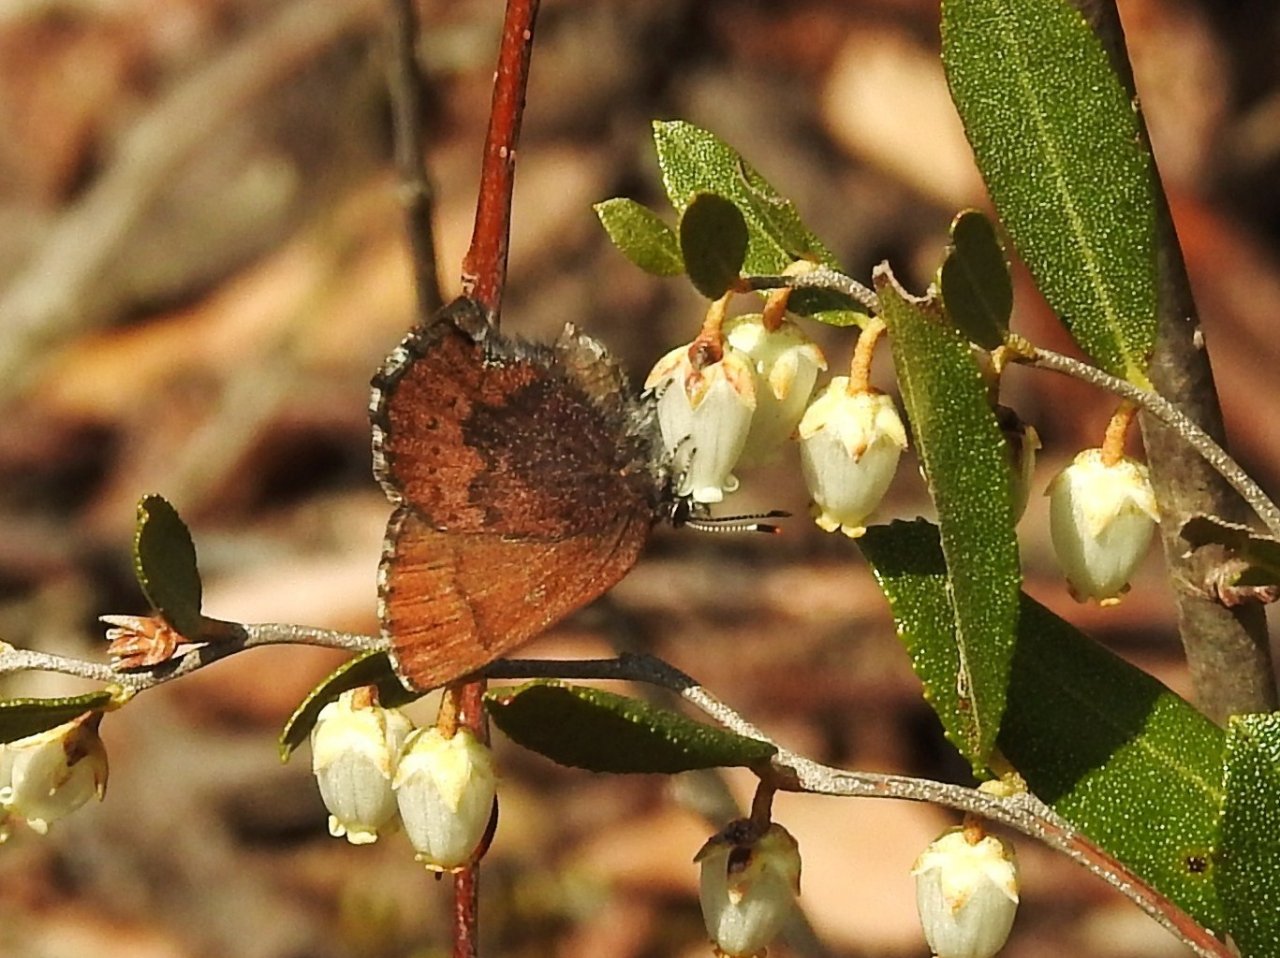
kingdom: Animalia
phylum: Arthropoda
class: Insecta
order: Lepidoptera
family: Lycaenidae
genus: Incisalia
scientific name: Incisalia irioides
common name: Brown Elfin
